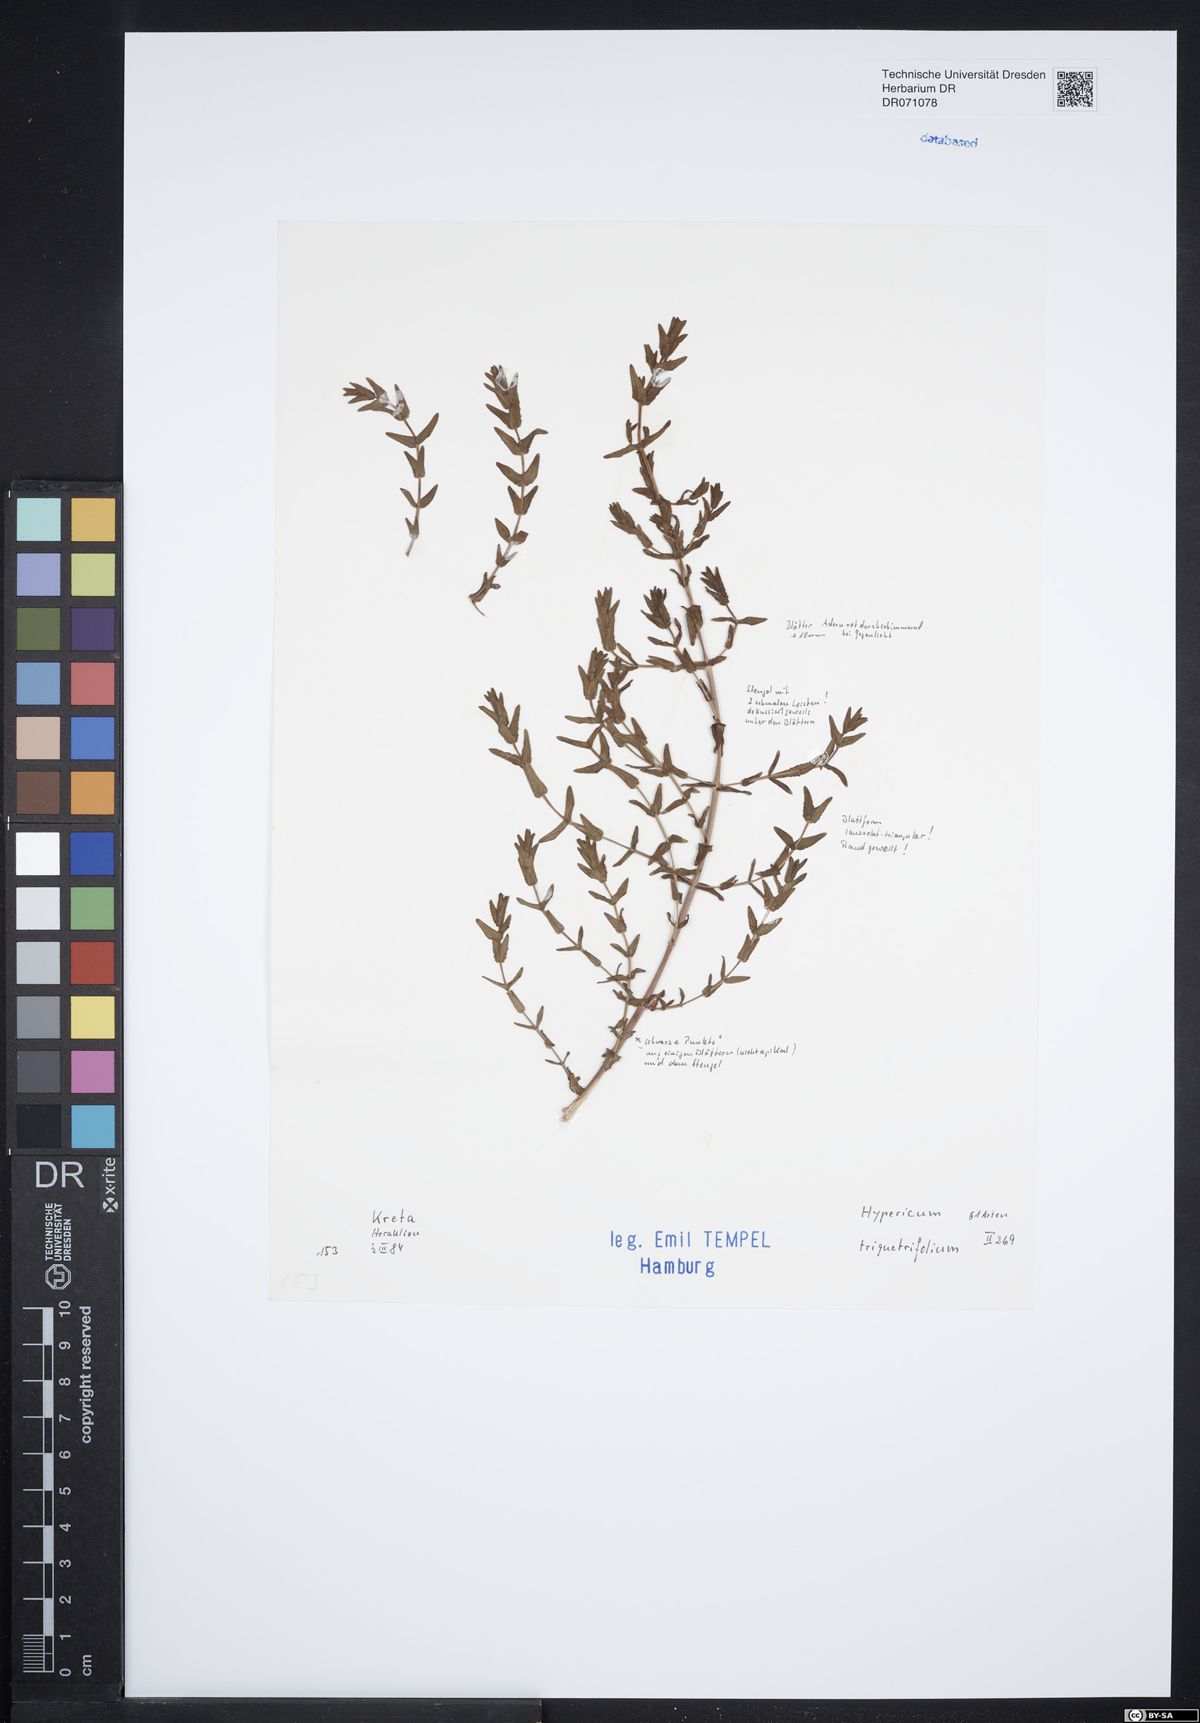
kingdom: Plantae
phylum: Tracheophyta
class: Magnoliopsida
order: Malpighiales
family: Hypericaceae
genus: Hypericum
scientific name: Hypericum triquetrifolium
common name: Tangled hypericum
